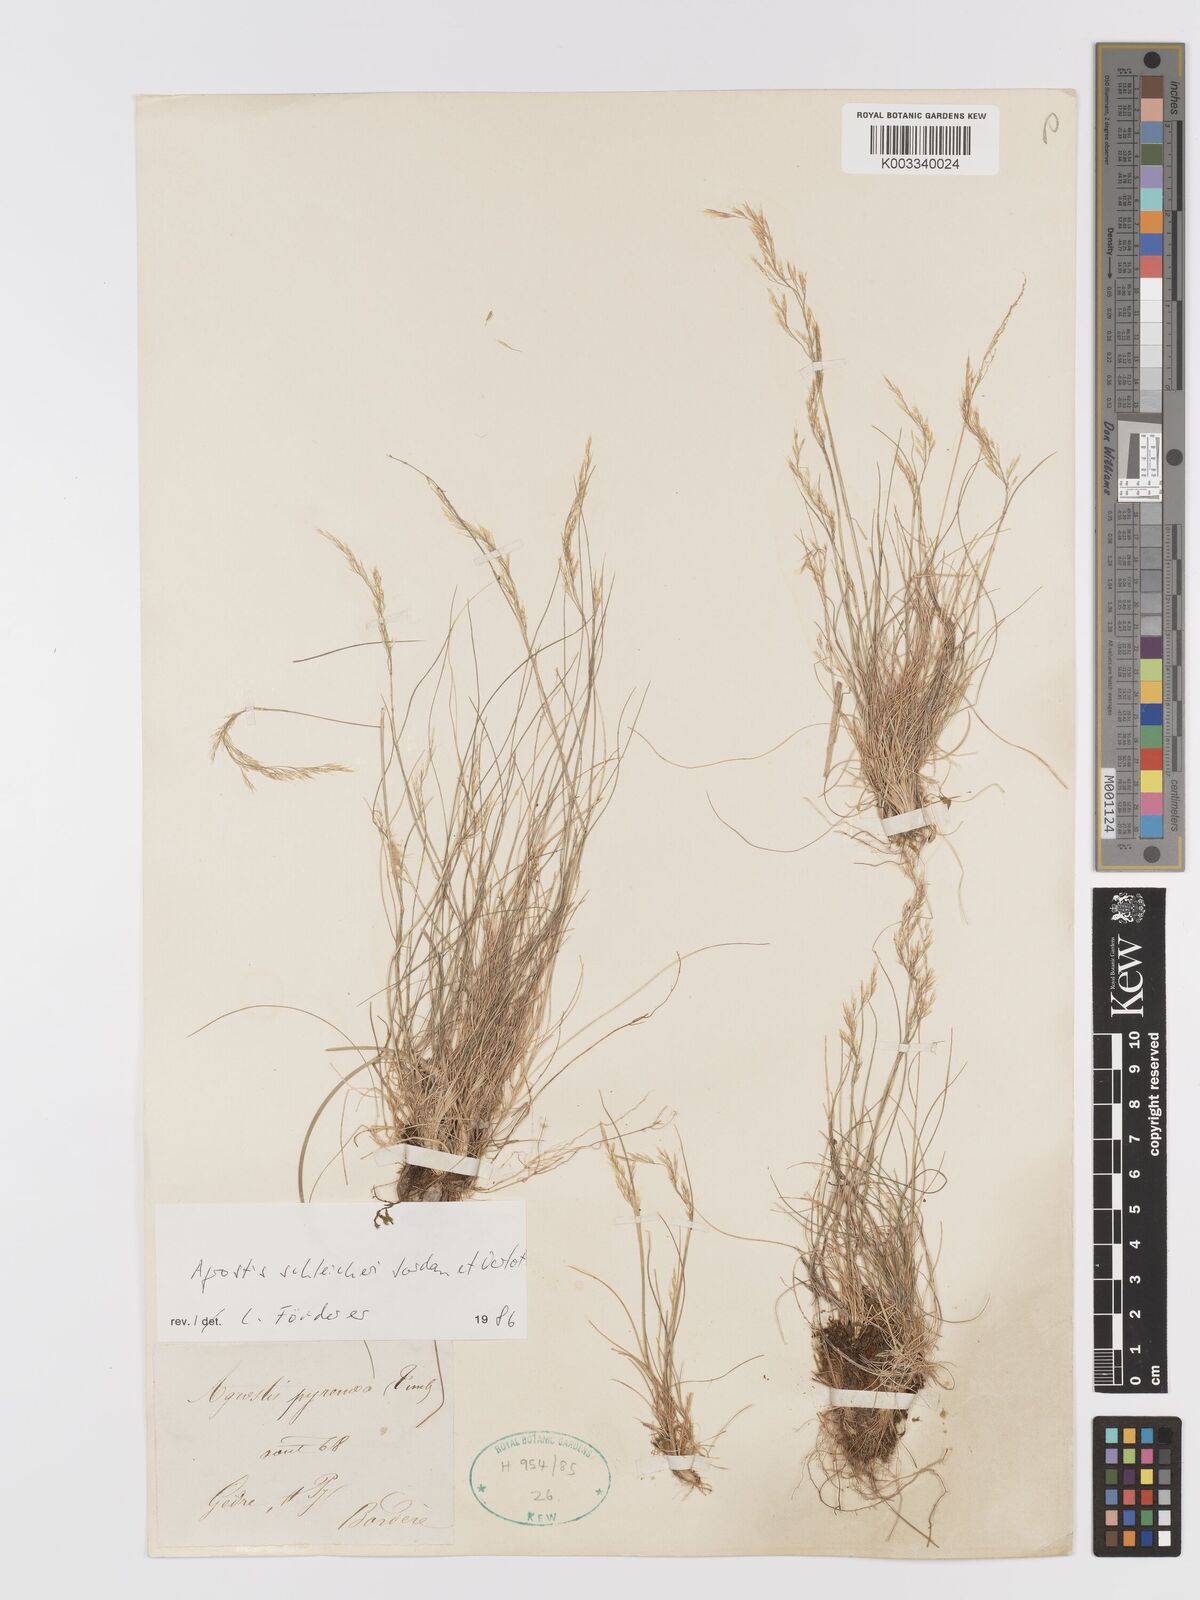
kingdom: Plantae
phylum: Tracheophyta
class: Liliopsida
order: Poales
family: Poaceae
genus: Alpagrostis
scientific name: Alpagrostis schleicheri
